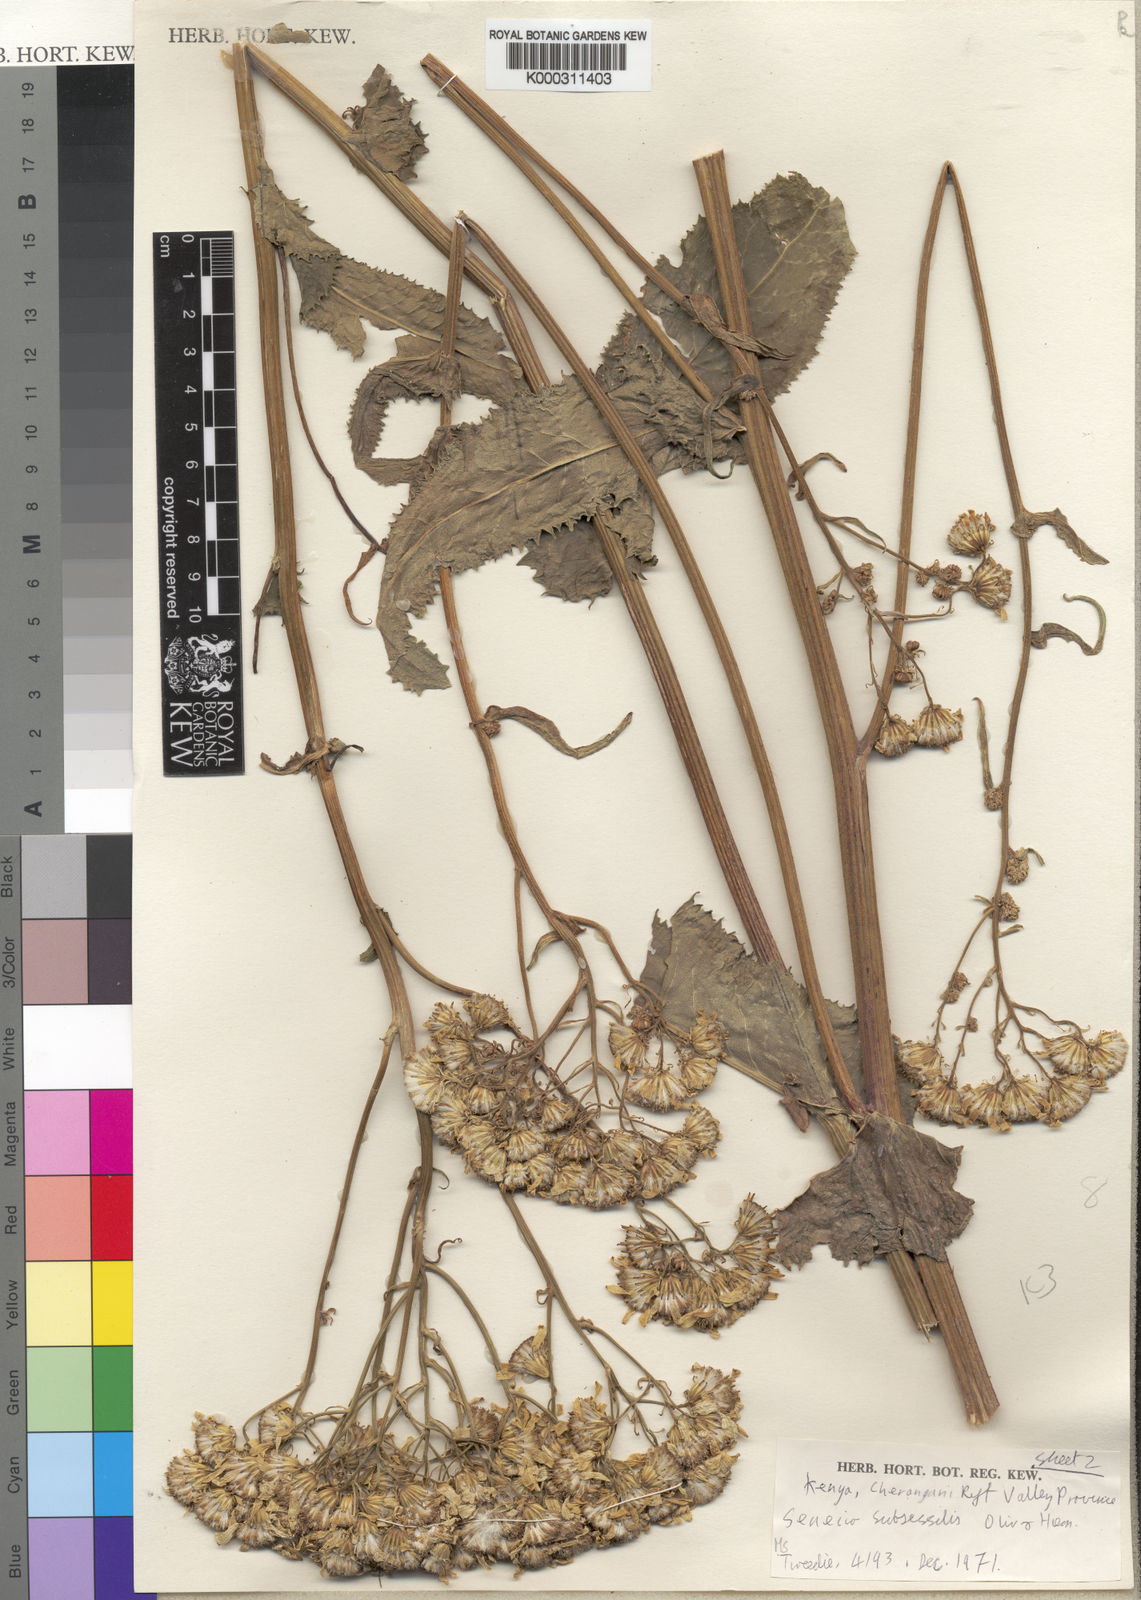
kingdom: Plantae
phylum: Tracheophyta
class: Magnoliopsida
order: Asterales
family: Asteraceae
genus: Senecio
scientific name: Senecio pseudosubsessilis
